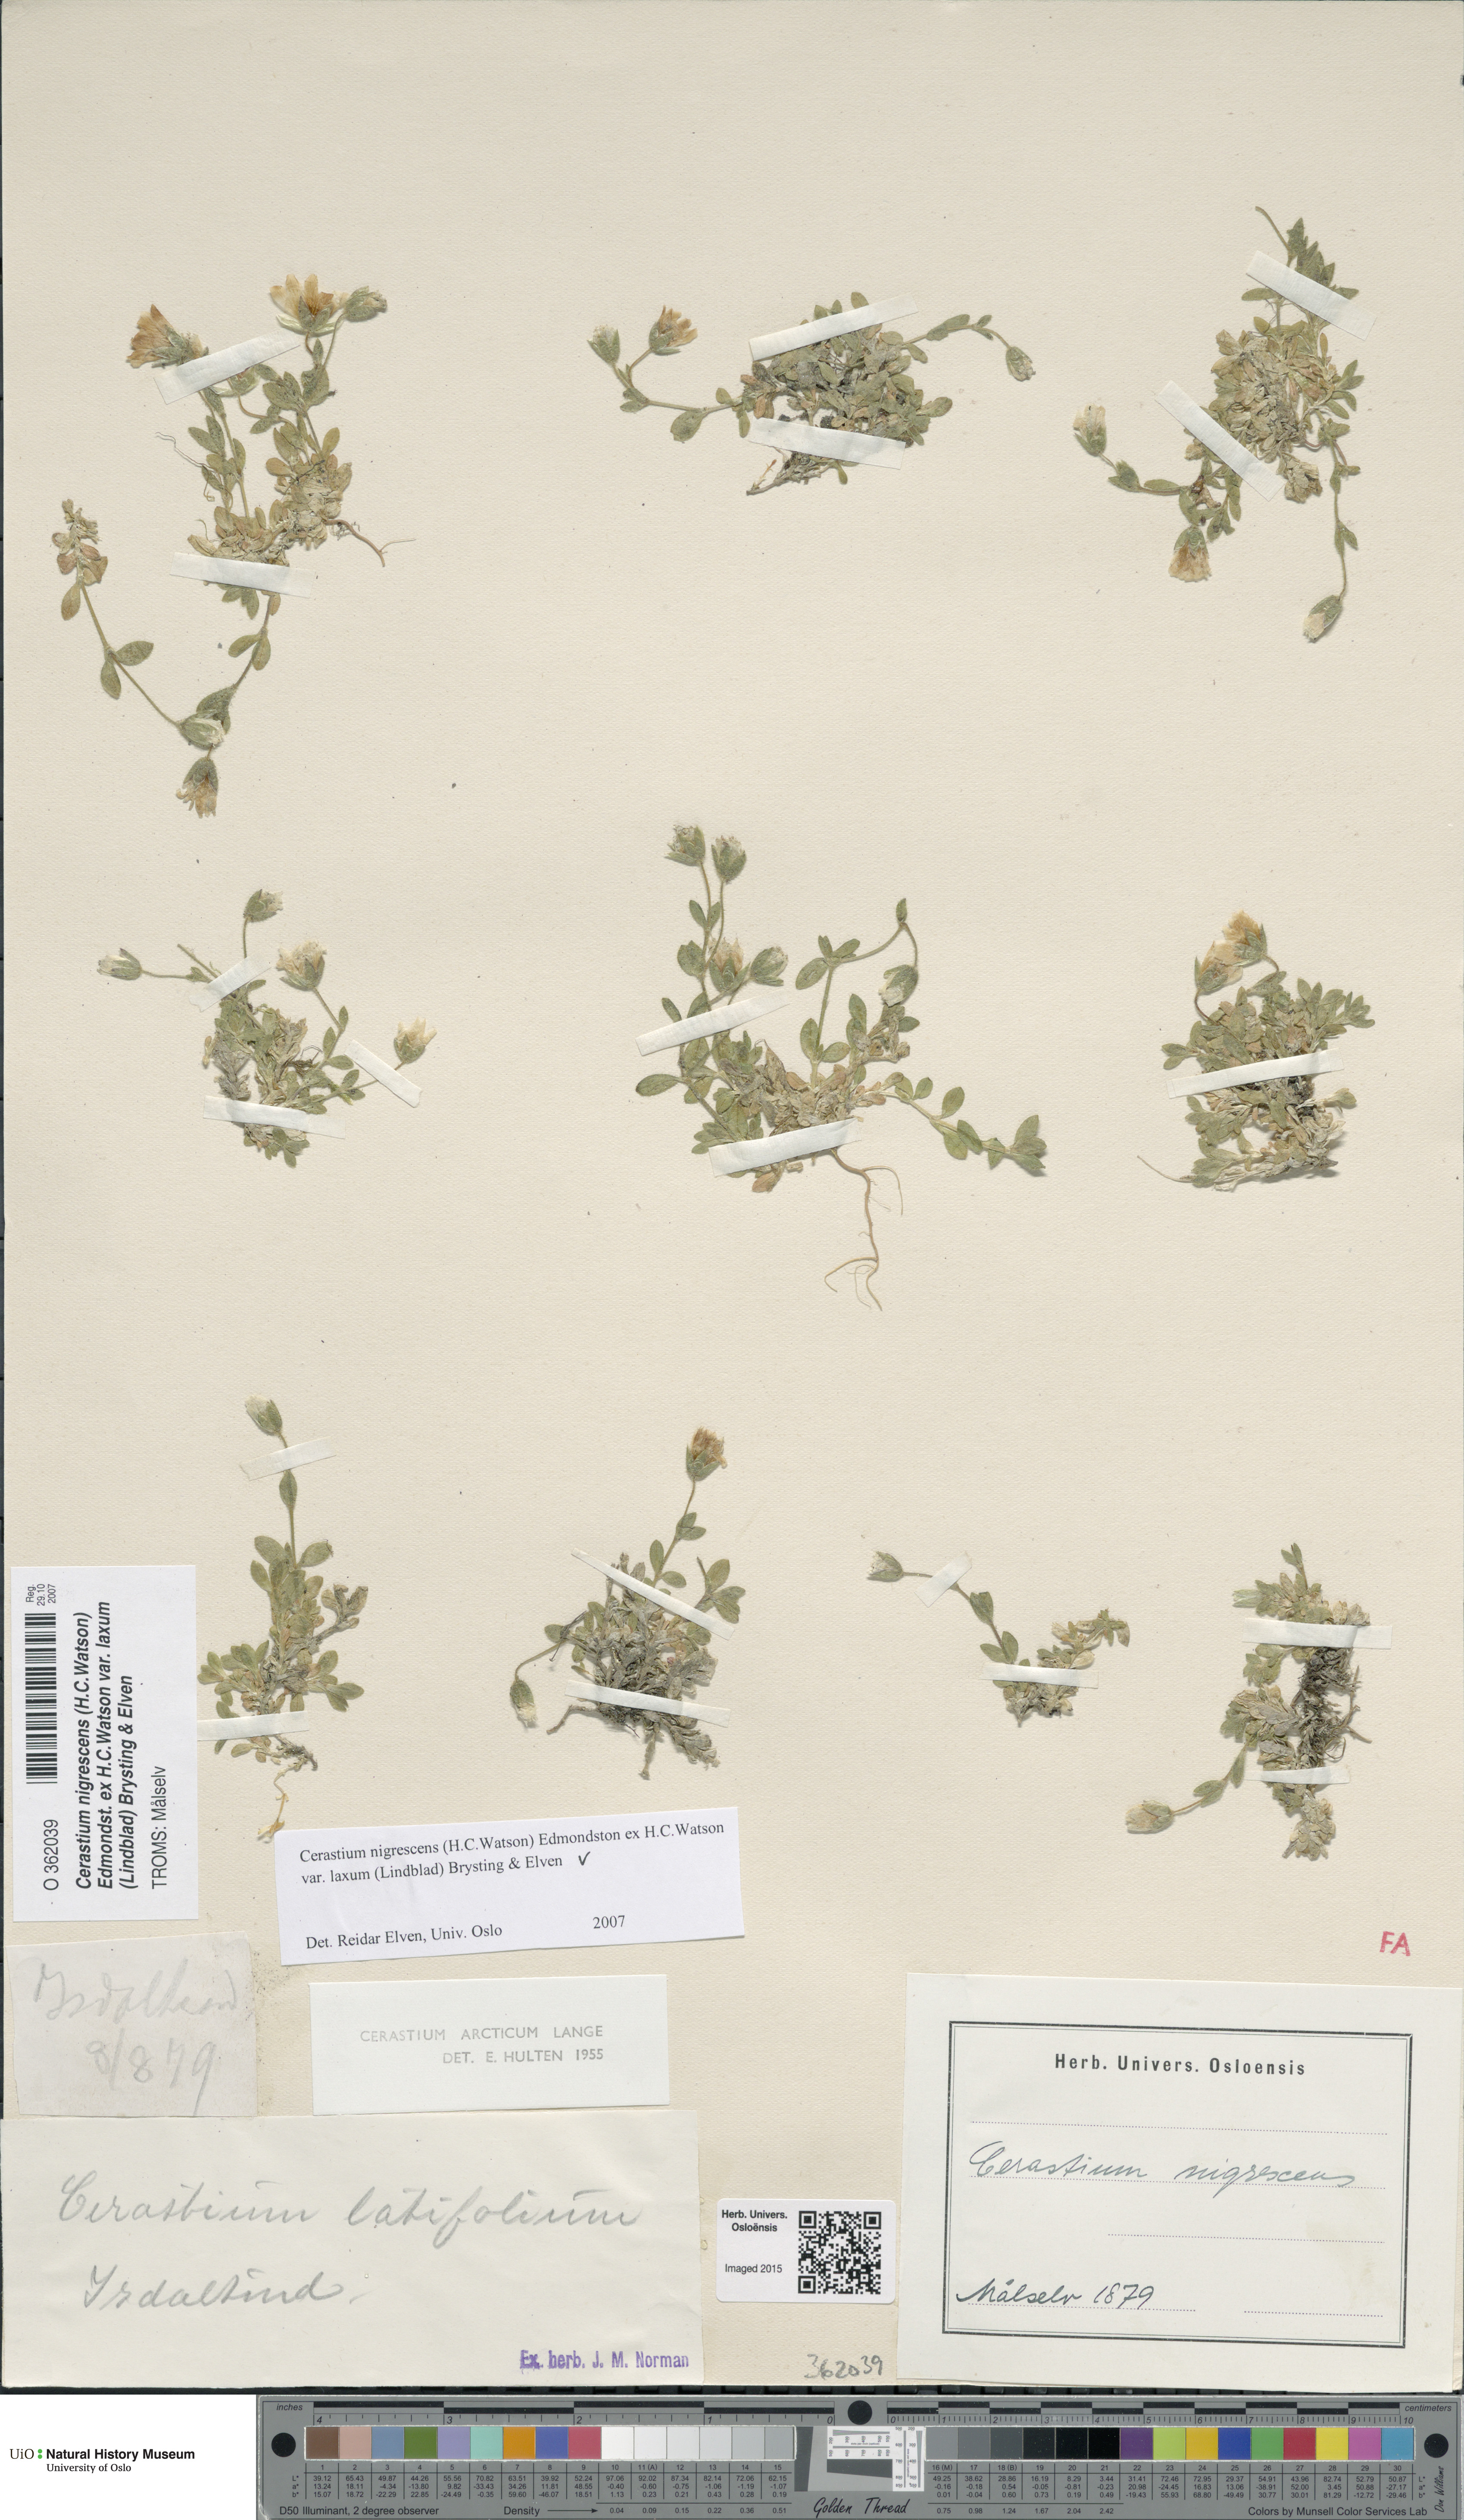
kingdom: Plantae
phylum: Tracheophyta
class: Magnoliopsida
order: Caryophyllales
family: Caryophyllaceae
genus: Cerastium
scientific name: Cerastium nigrescens
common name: Shetland mouse-ear
